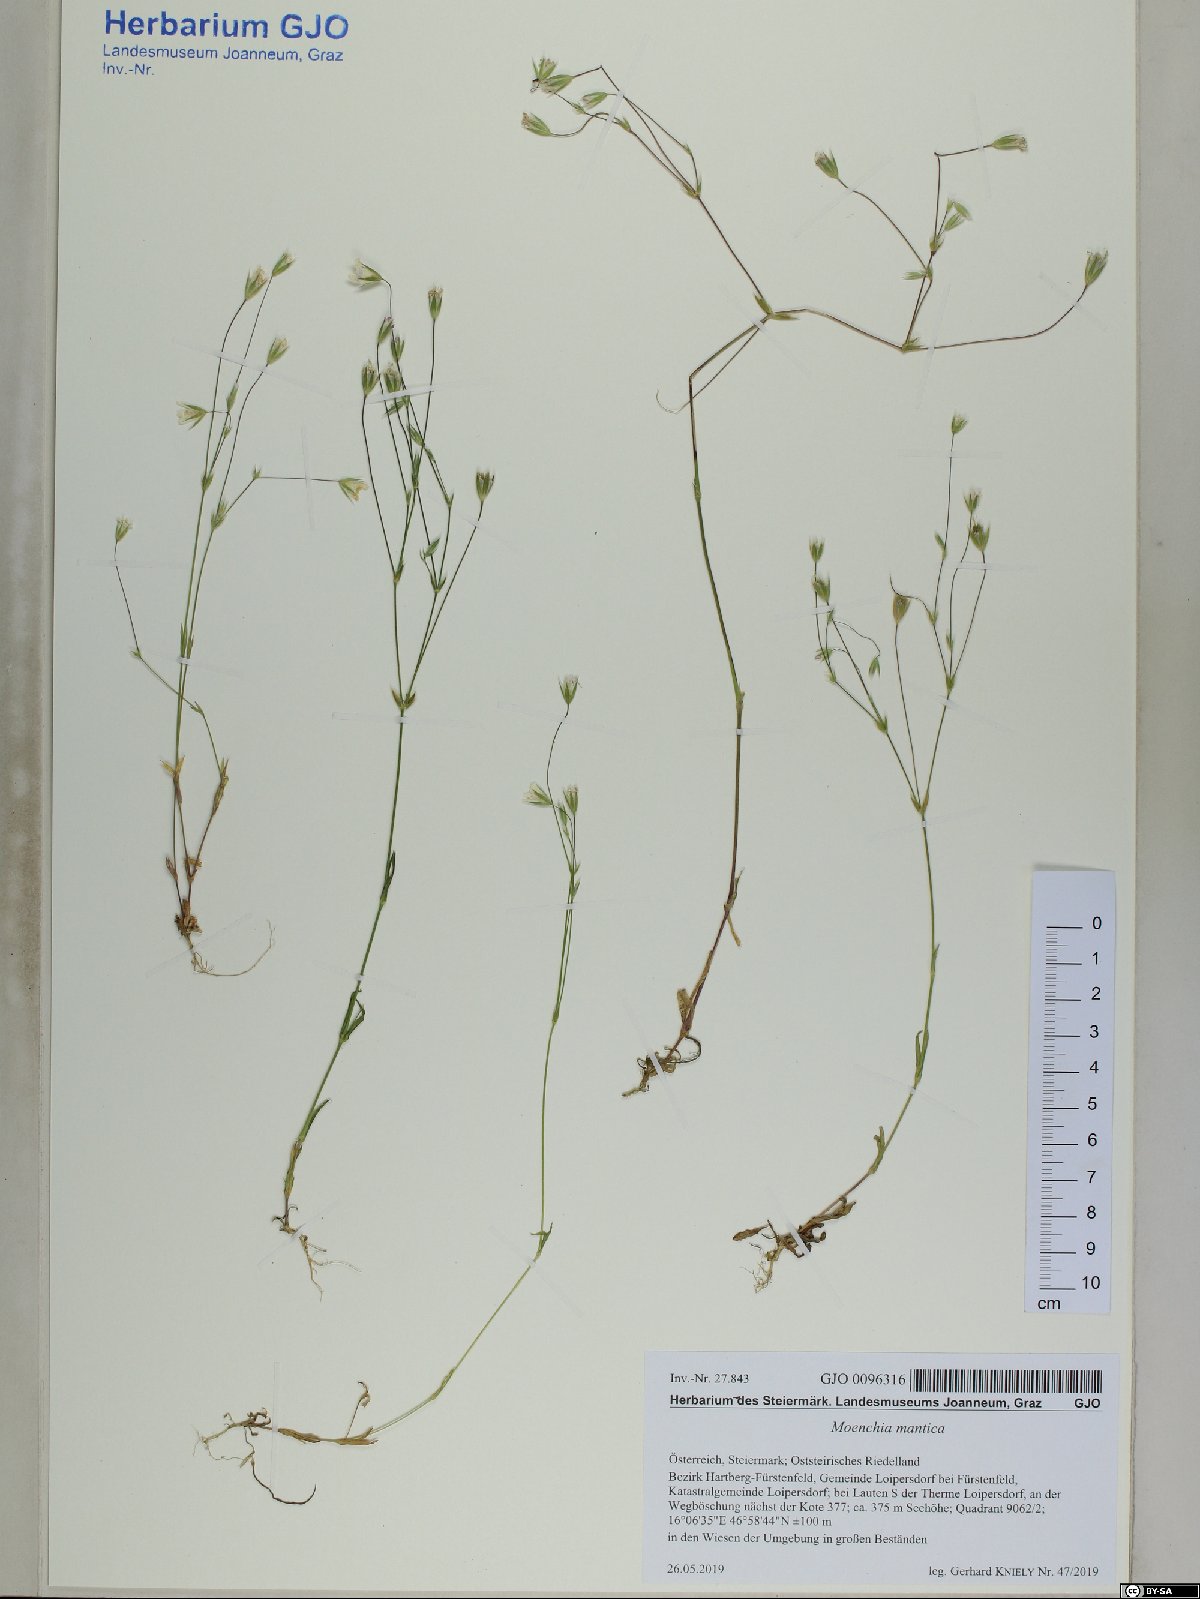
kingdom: Plantae
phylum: Tracheophyta
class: Magnoliopsida
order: Caryophyllales
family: Caryophyllaceae
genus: Moenchia
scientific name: Moenchia mantica
